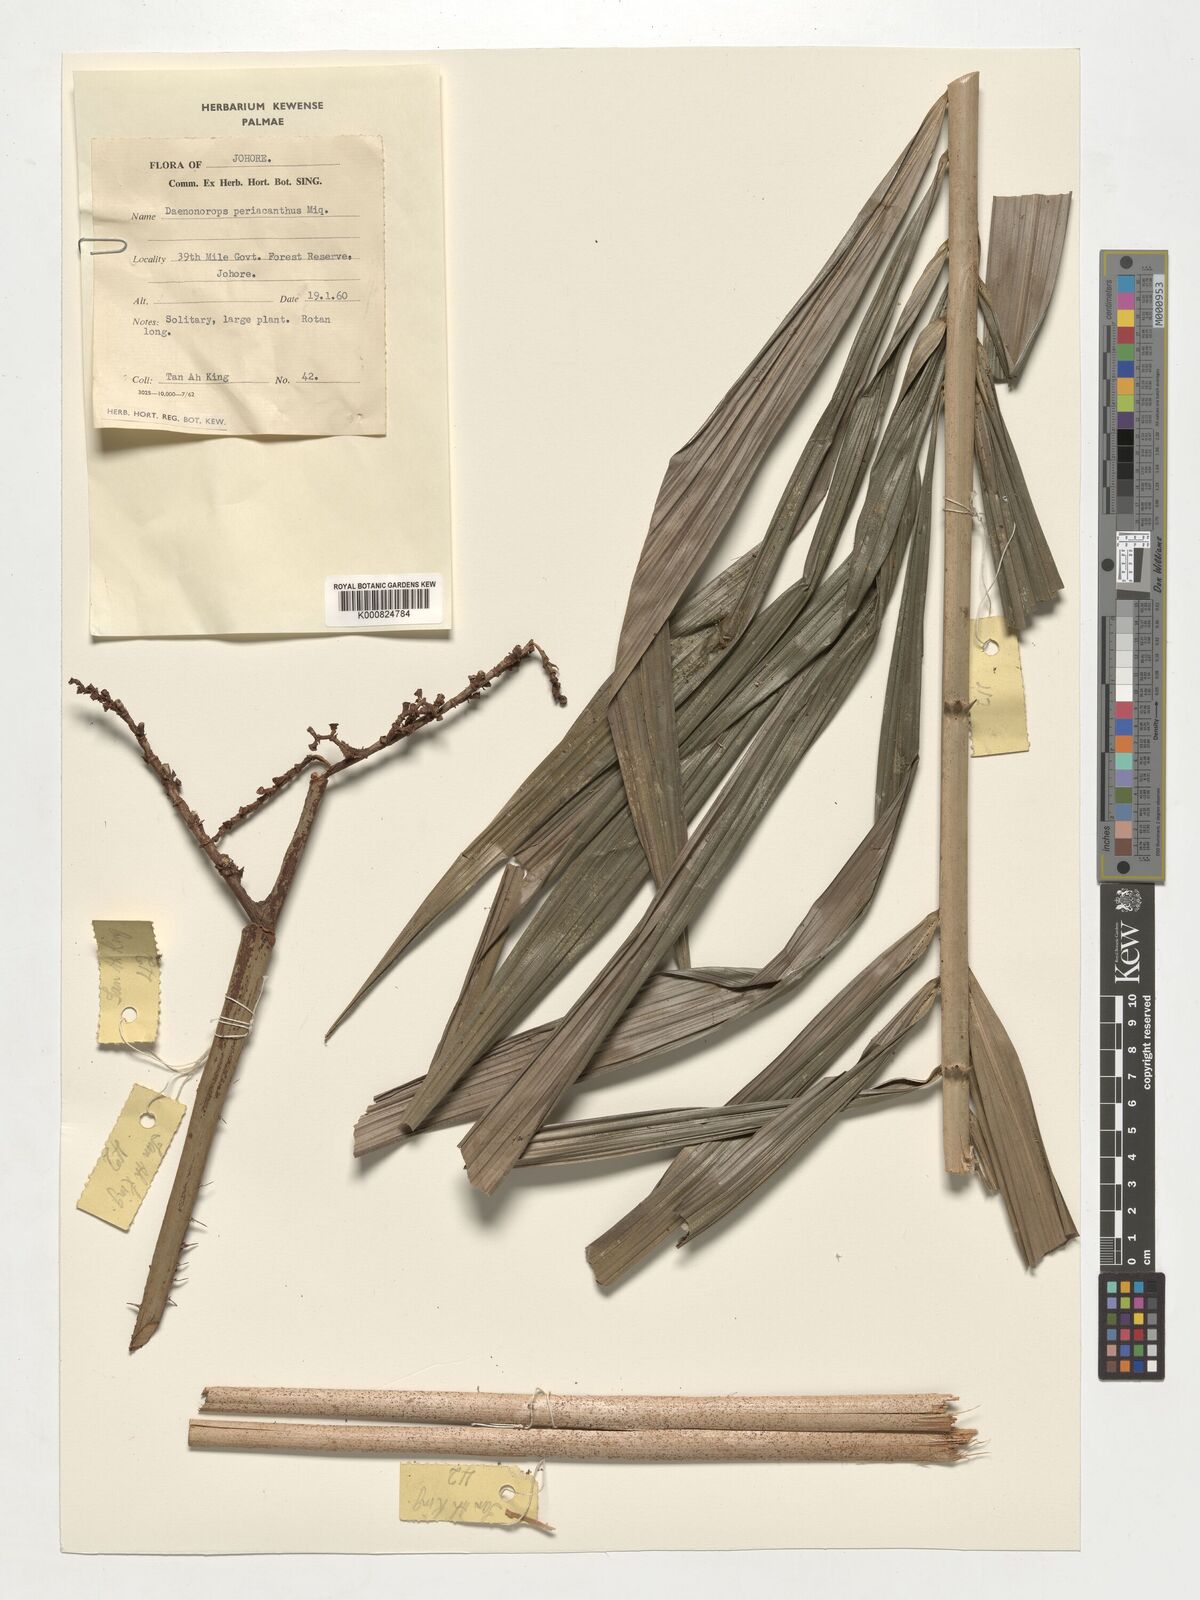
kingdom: Plantae
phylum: Tracheophyta
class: Liliopsida
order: Arecales
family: Arecaceae
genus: Calamus
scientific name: Calamus periacanthus
